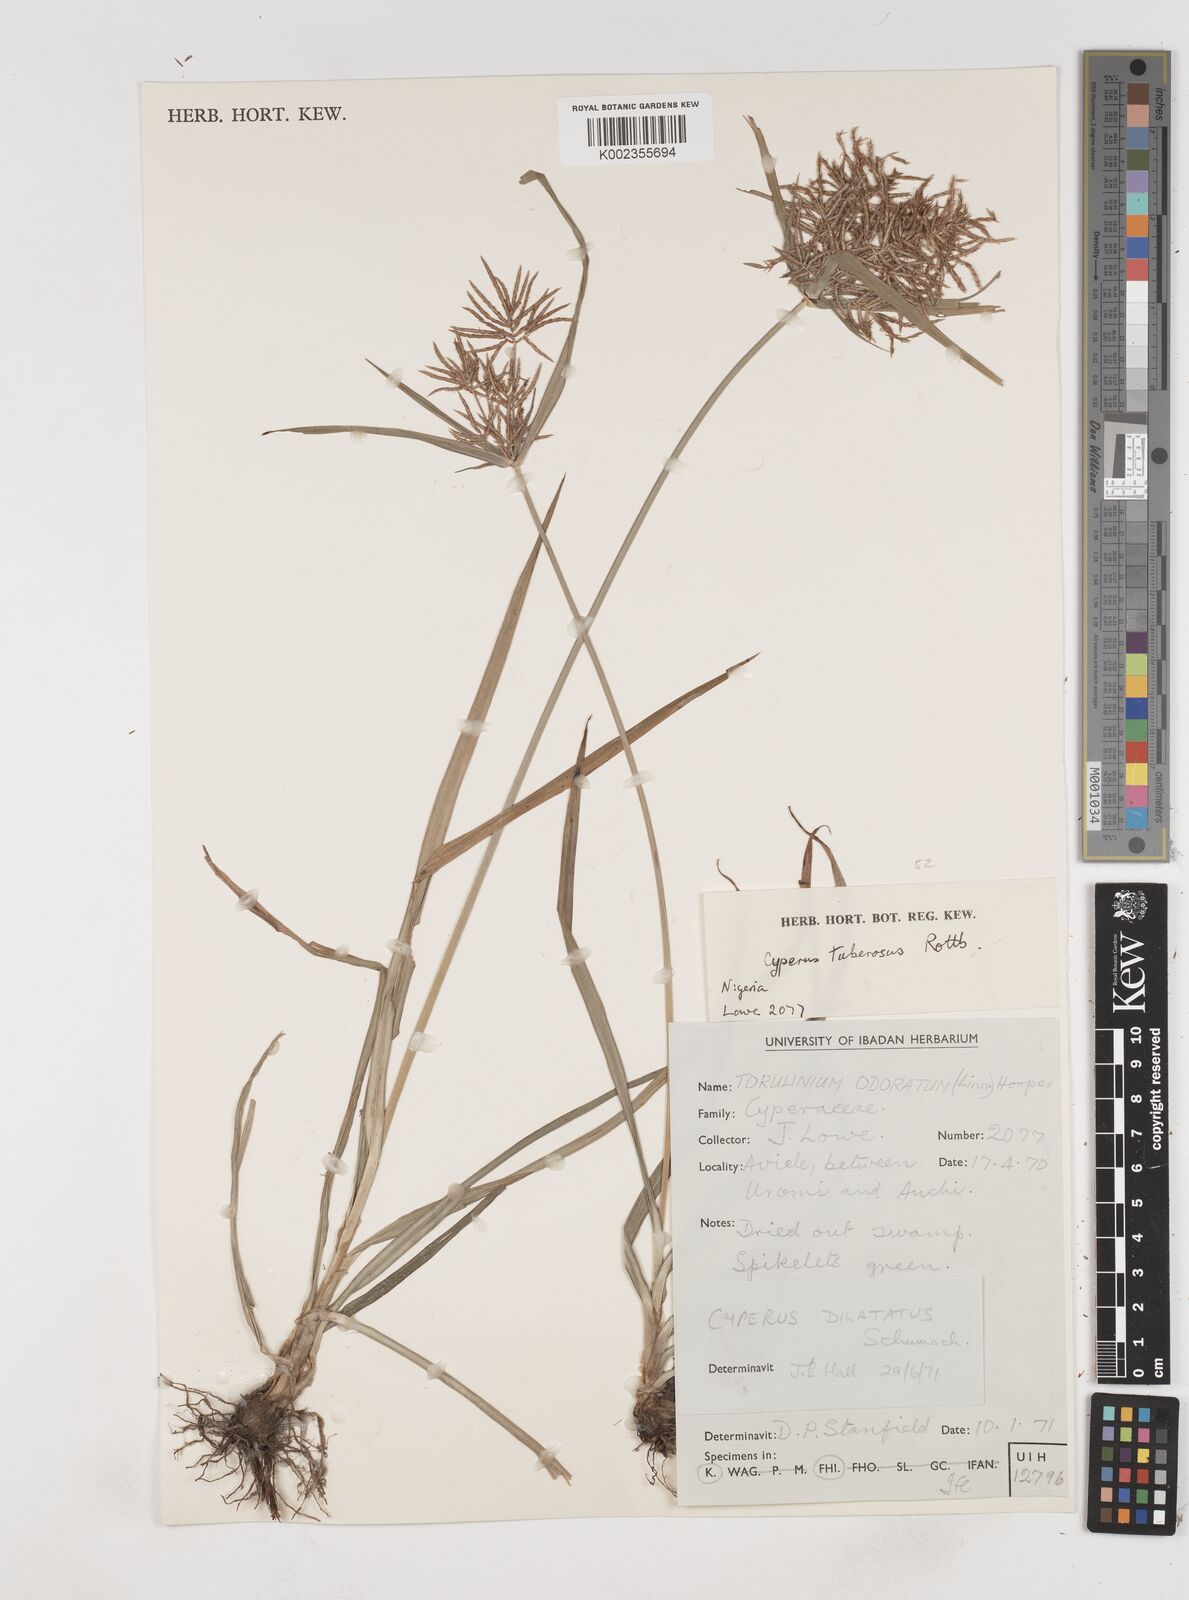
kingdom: Plantae
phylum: Tracheophyta
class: Liliopsida
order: Poales
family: Cyperaceae
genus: Cyperus
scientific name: Cyperus tuberosus
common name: Nut grass
